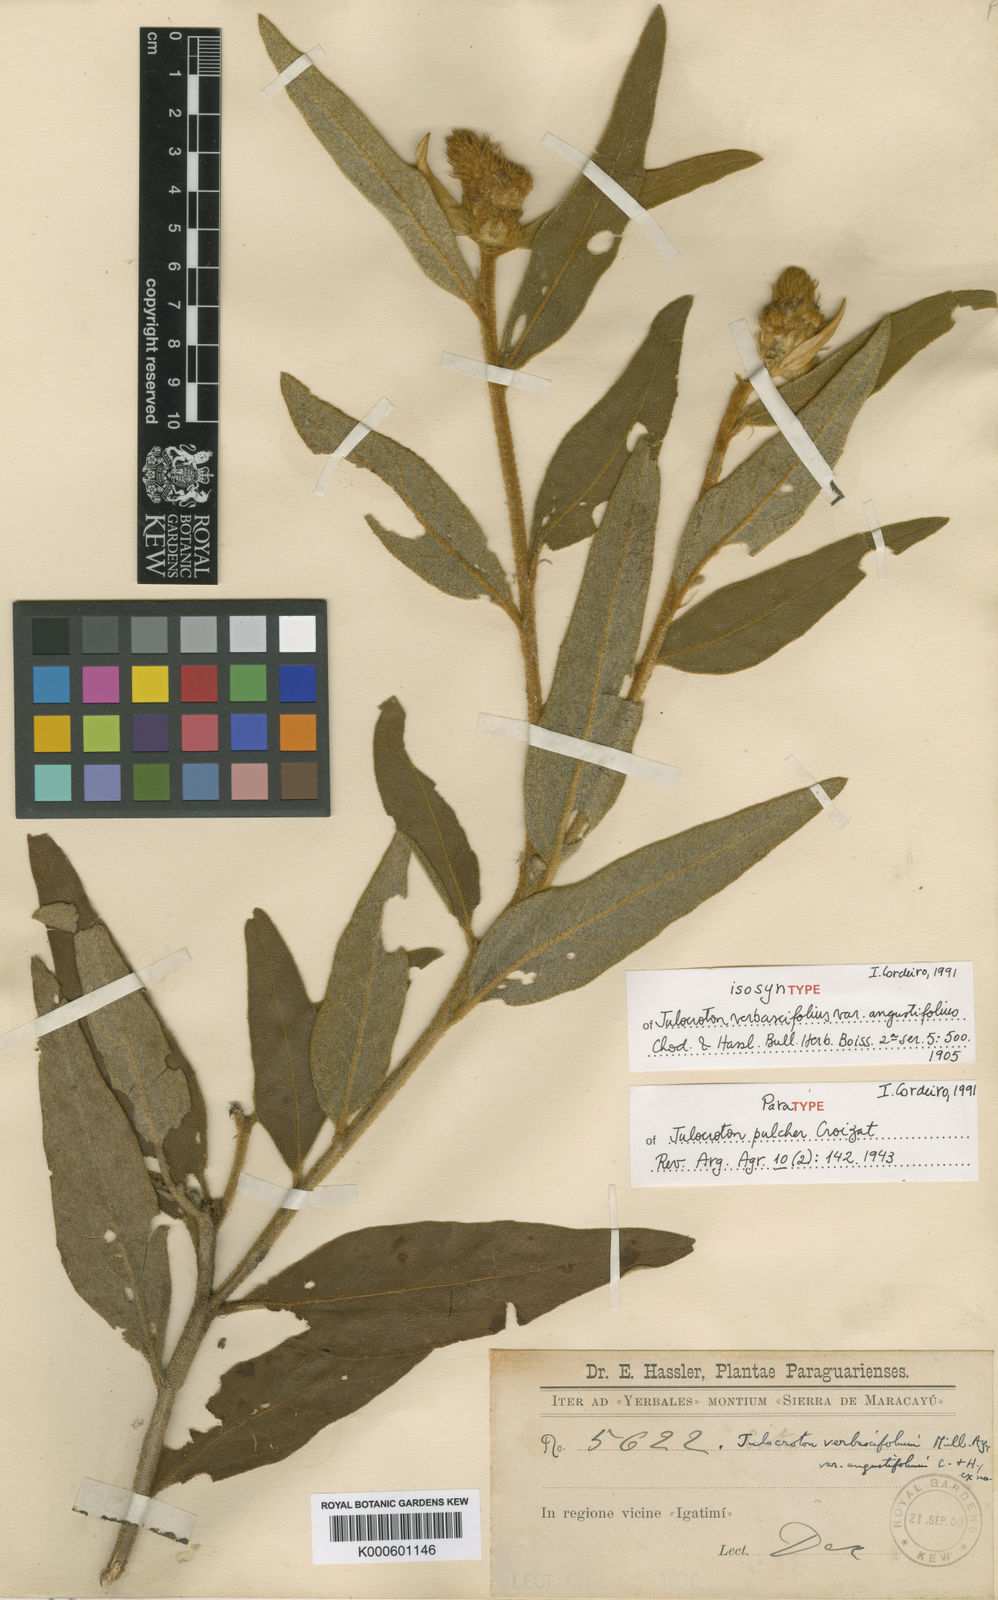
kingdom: Plantae
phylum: Tracheophyta
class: Magnoliopsida
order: Malpighiales
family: Euphorbiaceae
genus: Croton
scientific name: Croton verbascoides
